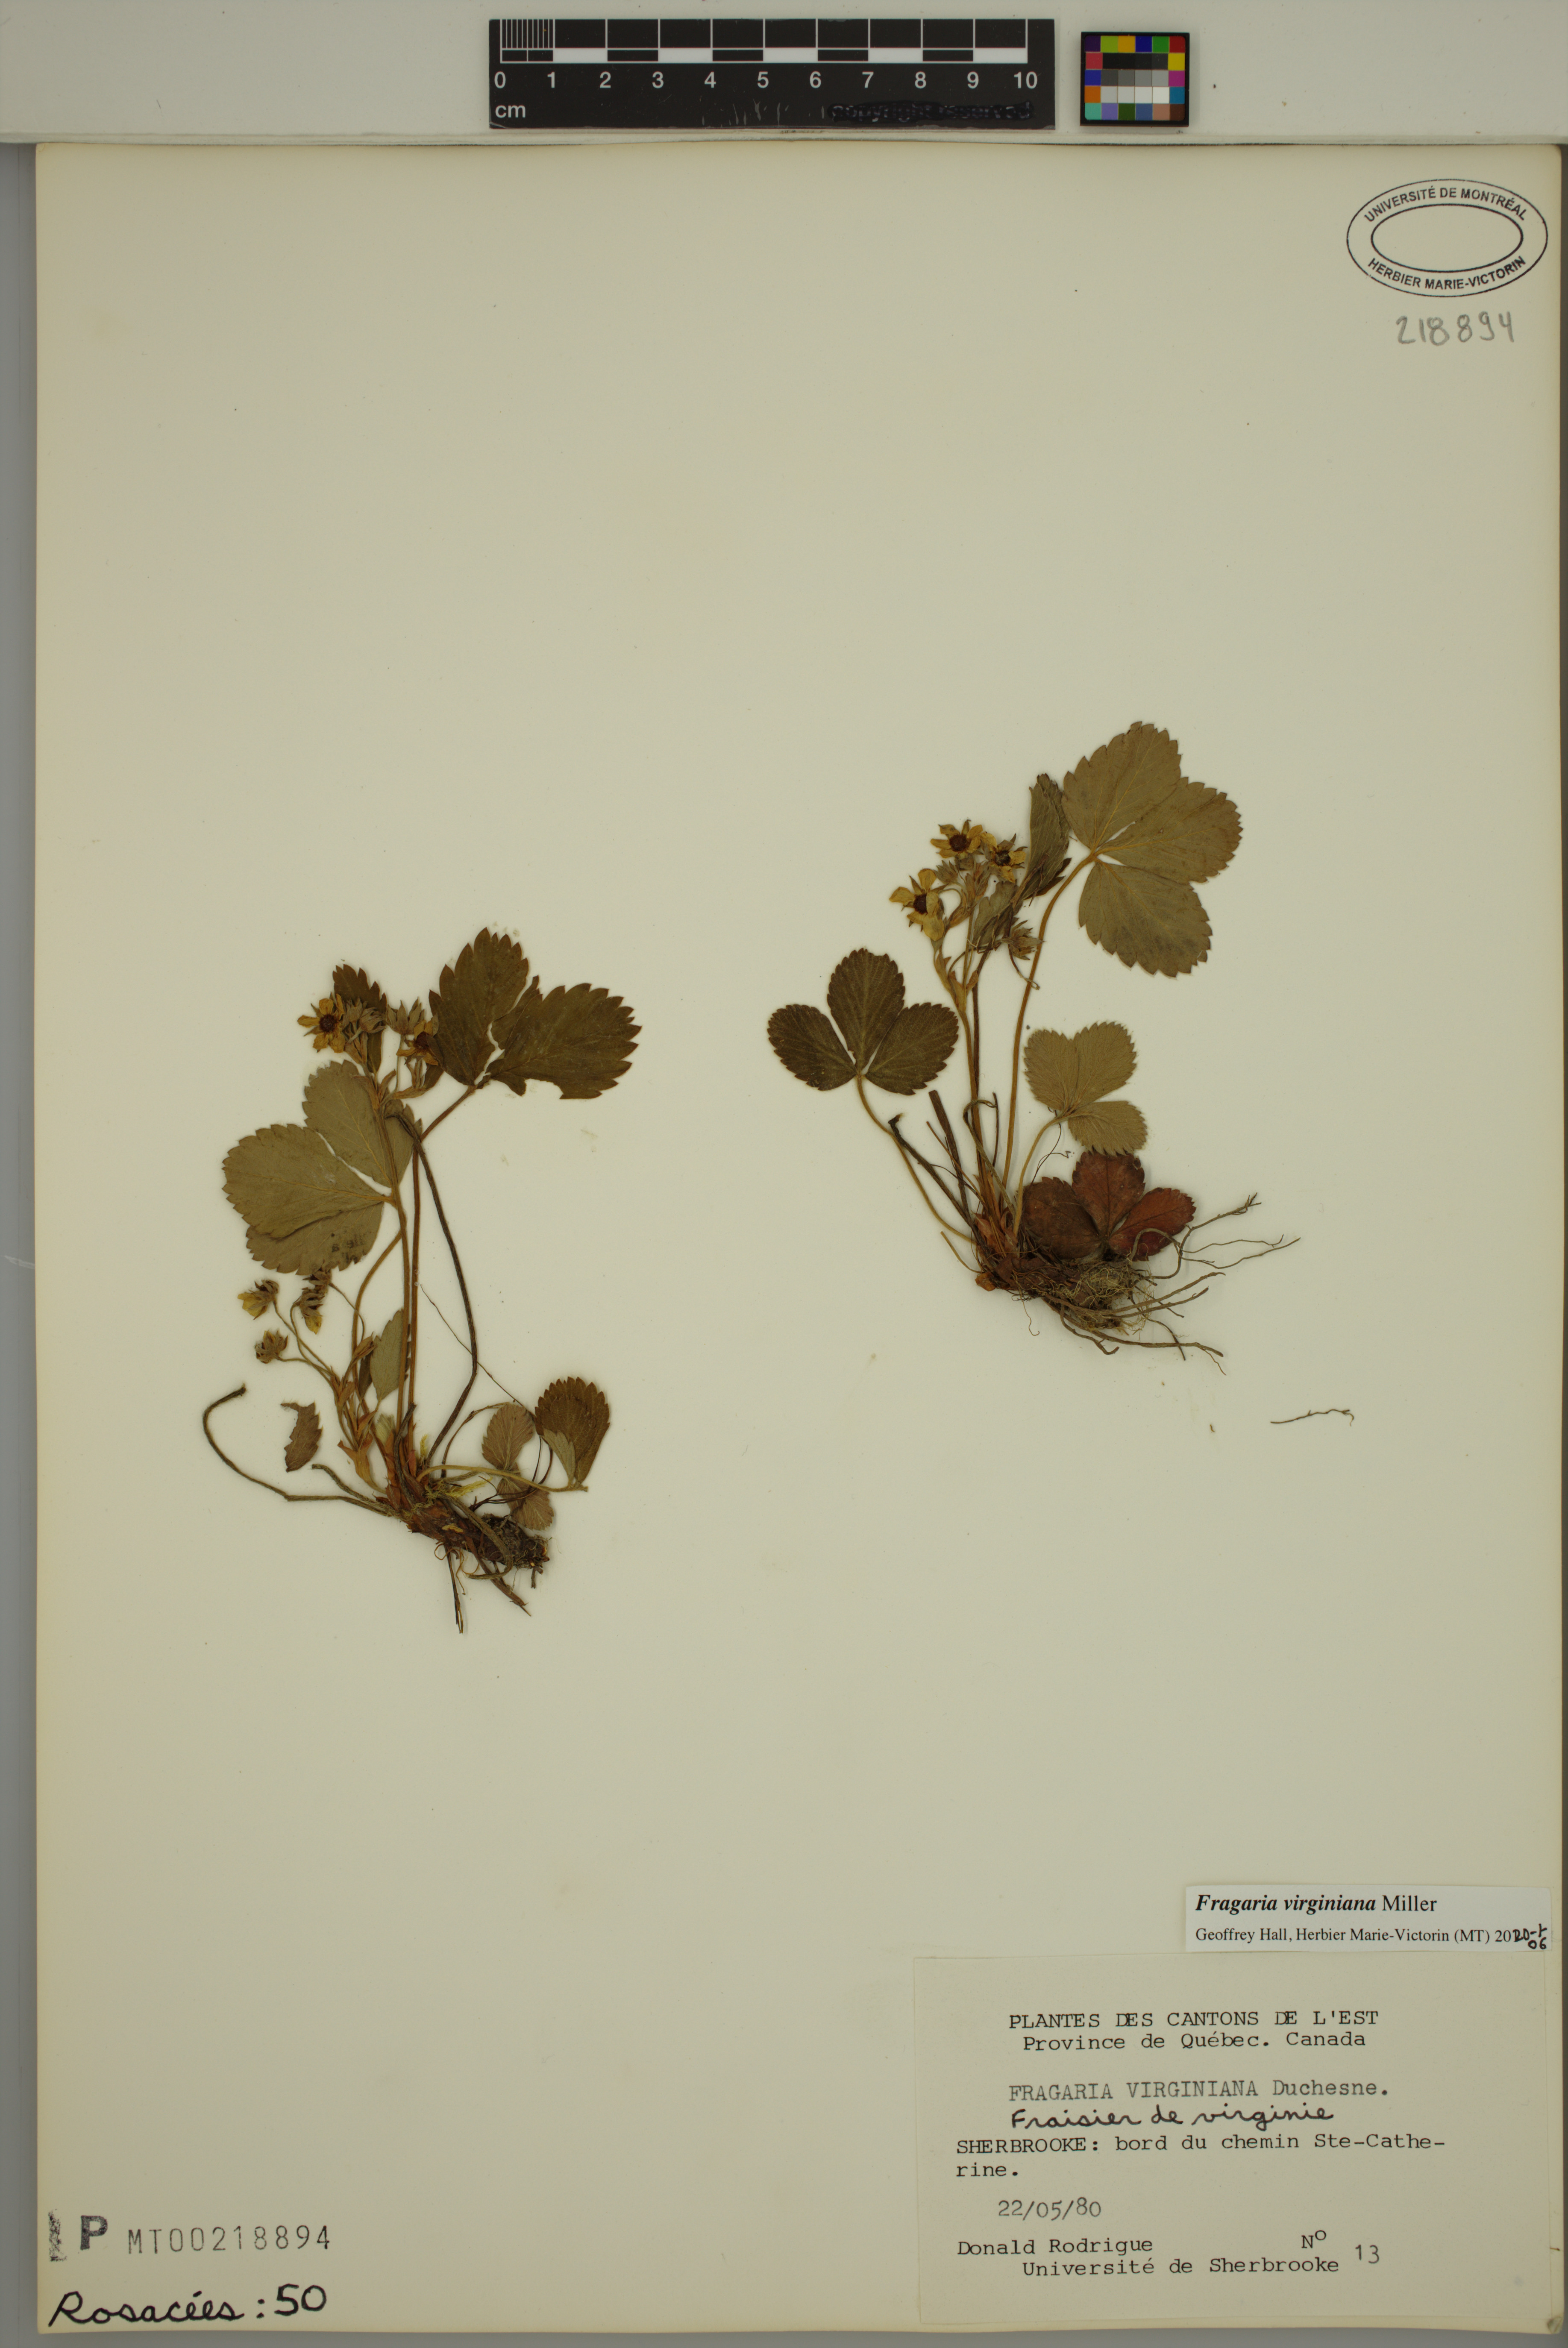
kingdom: Plantae
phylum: Tracheophyta
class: Magnoliopsida
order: Rosales
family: Rosaceae
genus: Fragaria
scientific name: Fragaria virginiana
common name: Thickleaved wild strawberry
